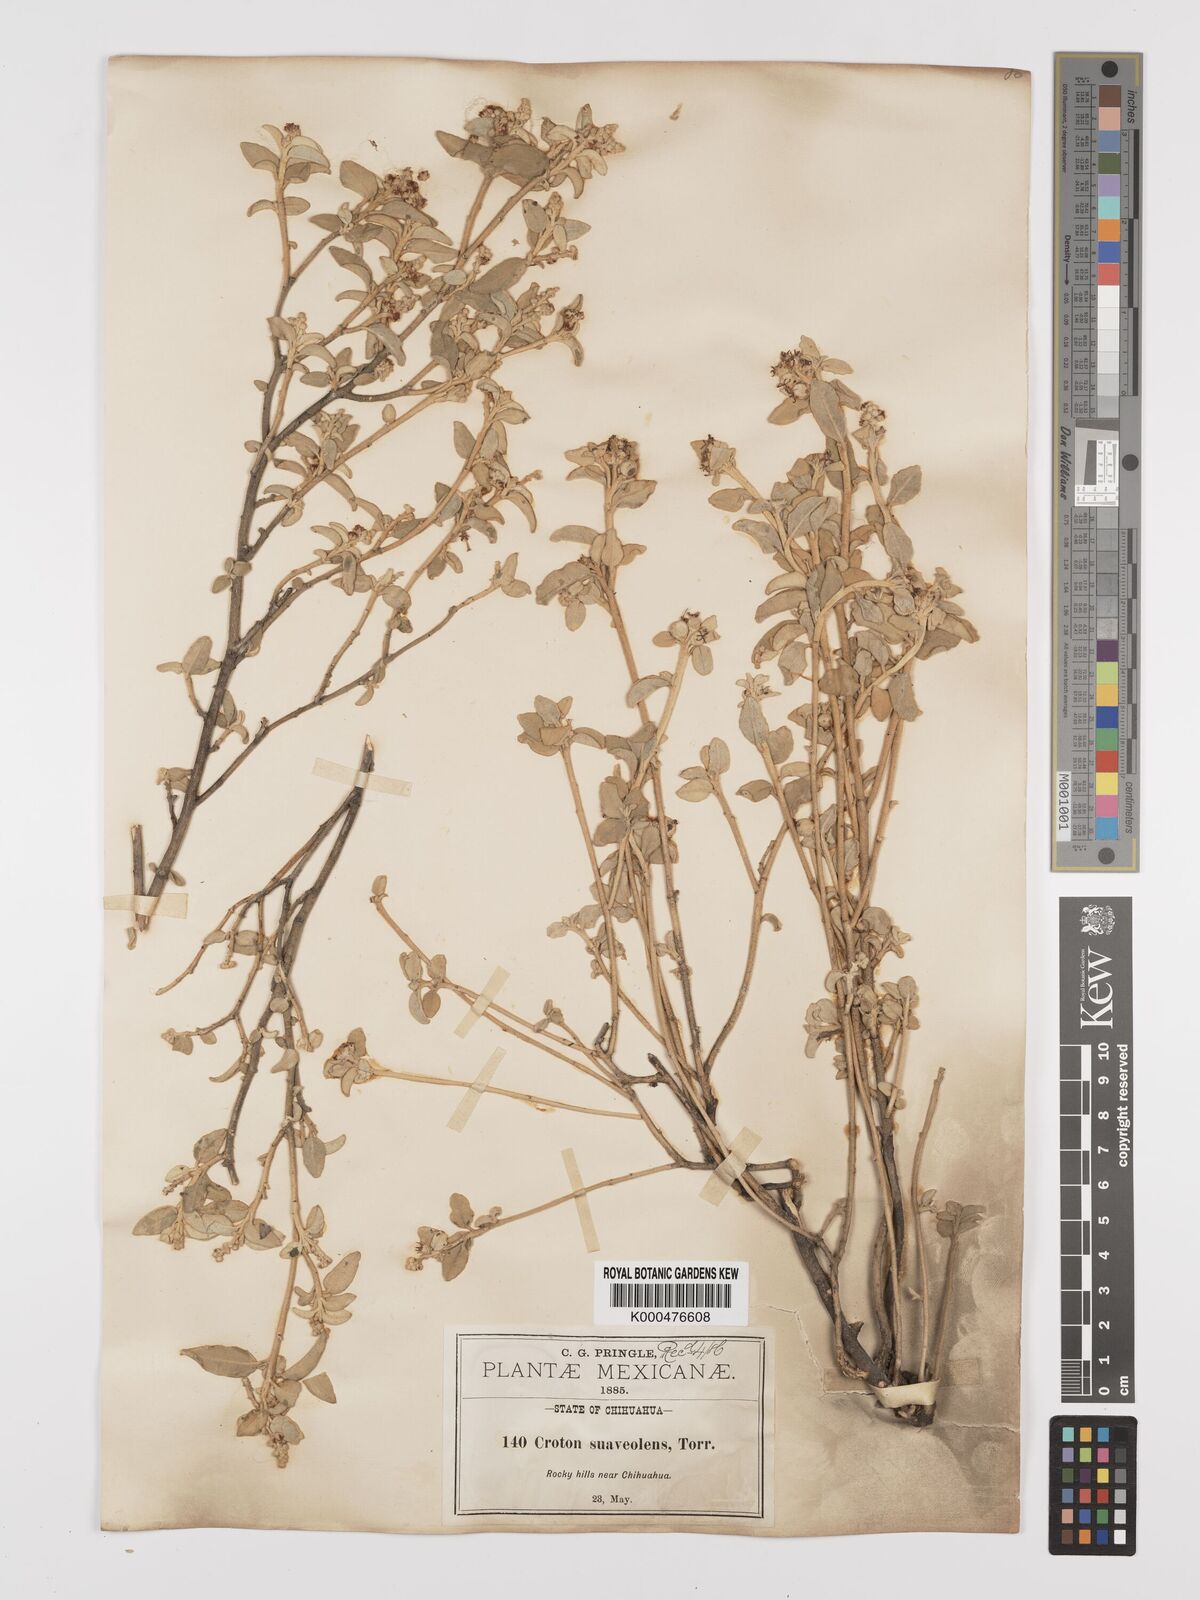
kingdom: Plantae
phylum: Tracheophyta
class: Magnoliopsida
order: Malpighiales
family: Euphorbiaceae
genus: Croton
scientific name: Croton suaveolens
